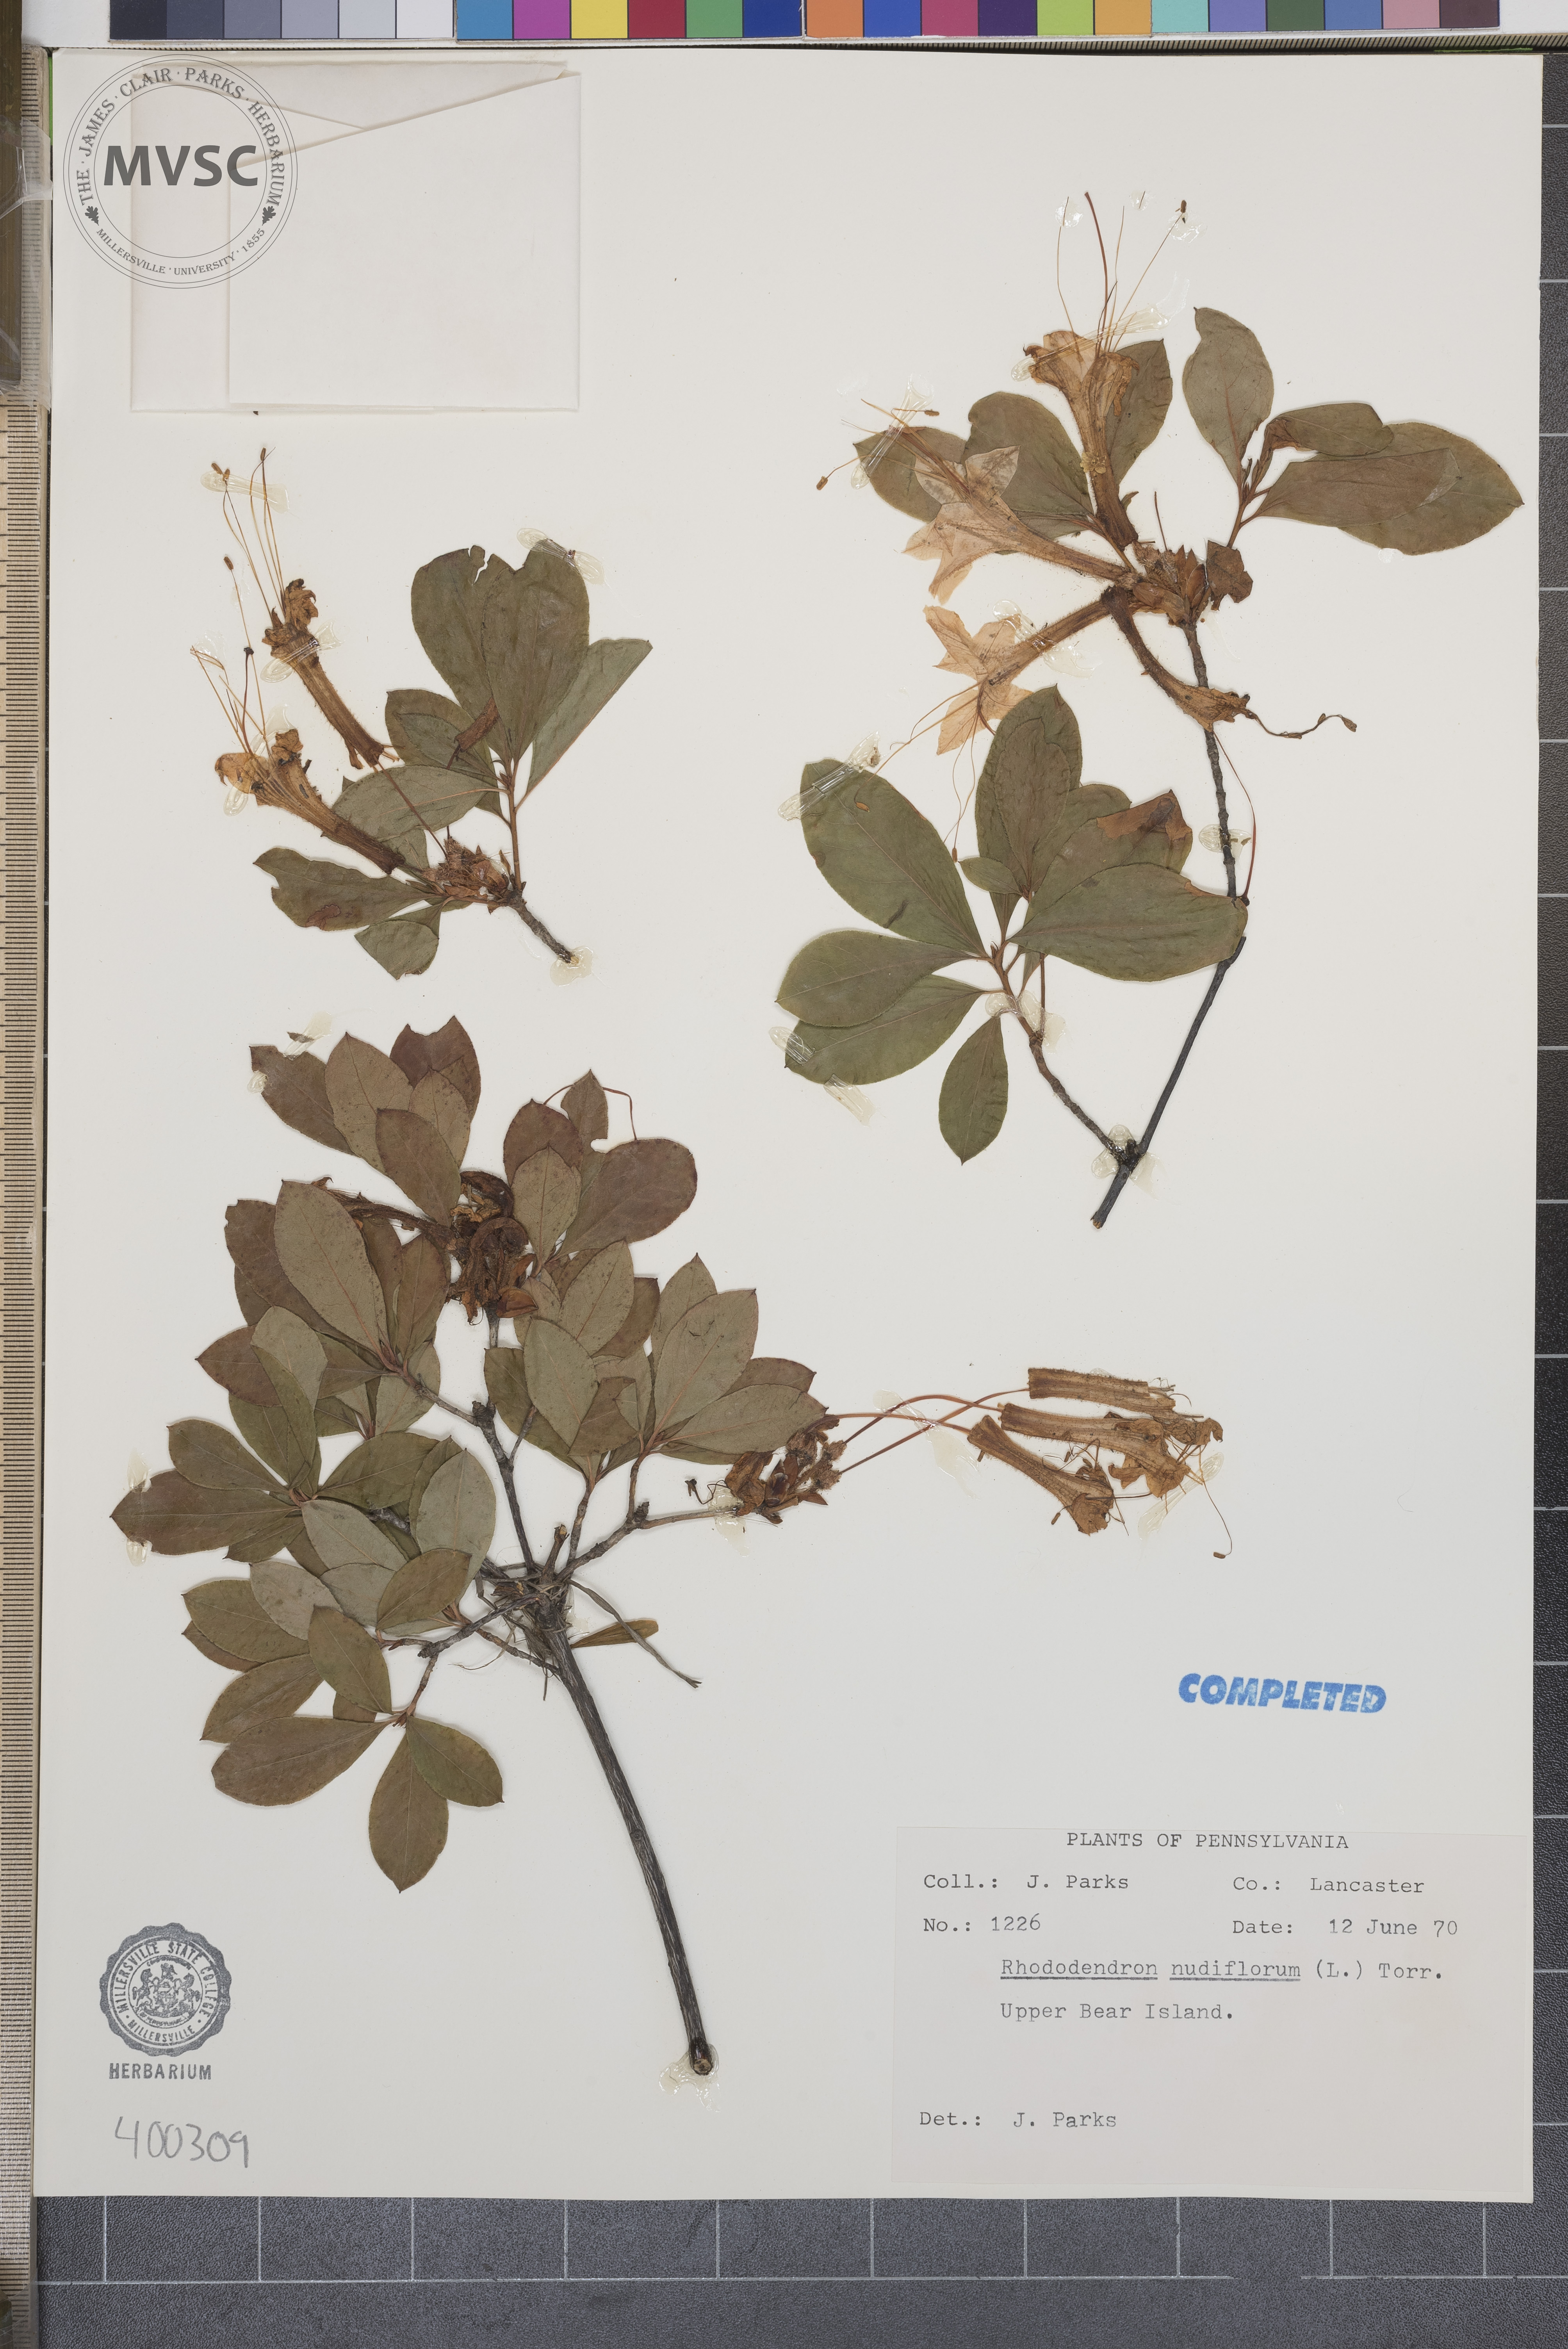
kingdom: Plantae
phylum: Tracheophyta
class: Magnoliopsida
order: Ericales
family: Ericaceae
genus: Rhododendron
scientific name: Rhododendron periclymenoides
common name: Election-pink
